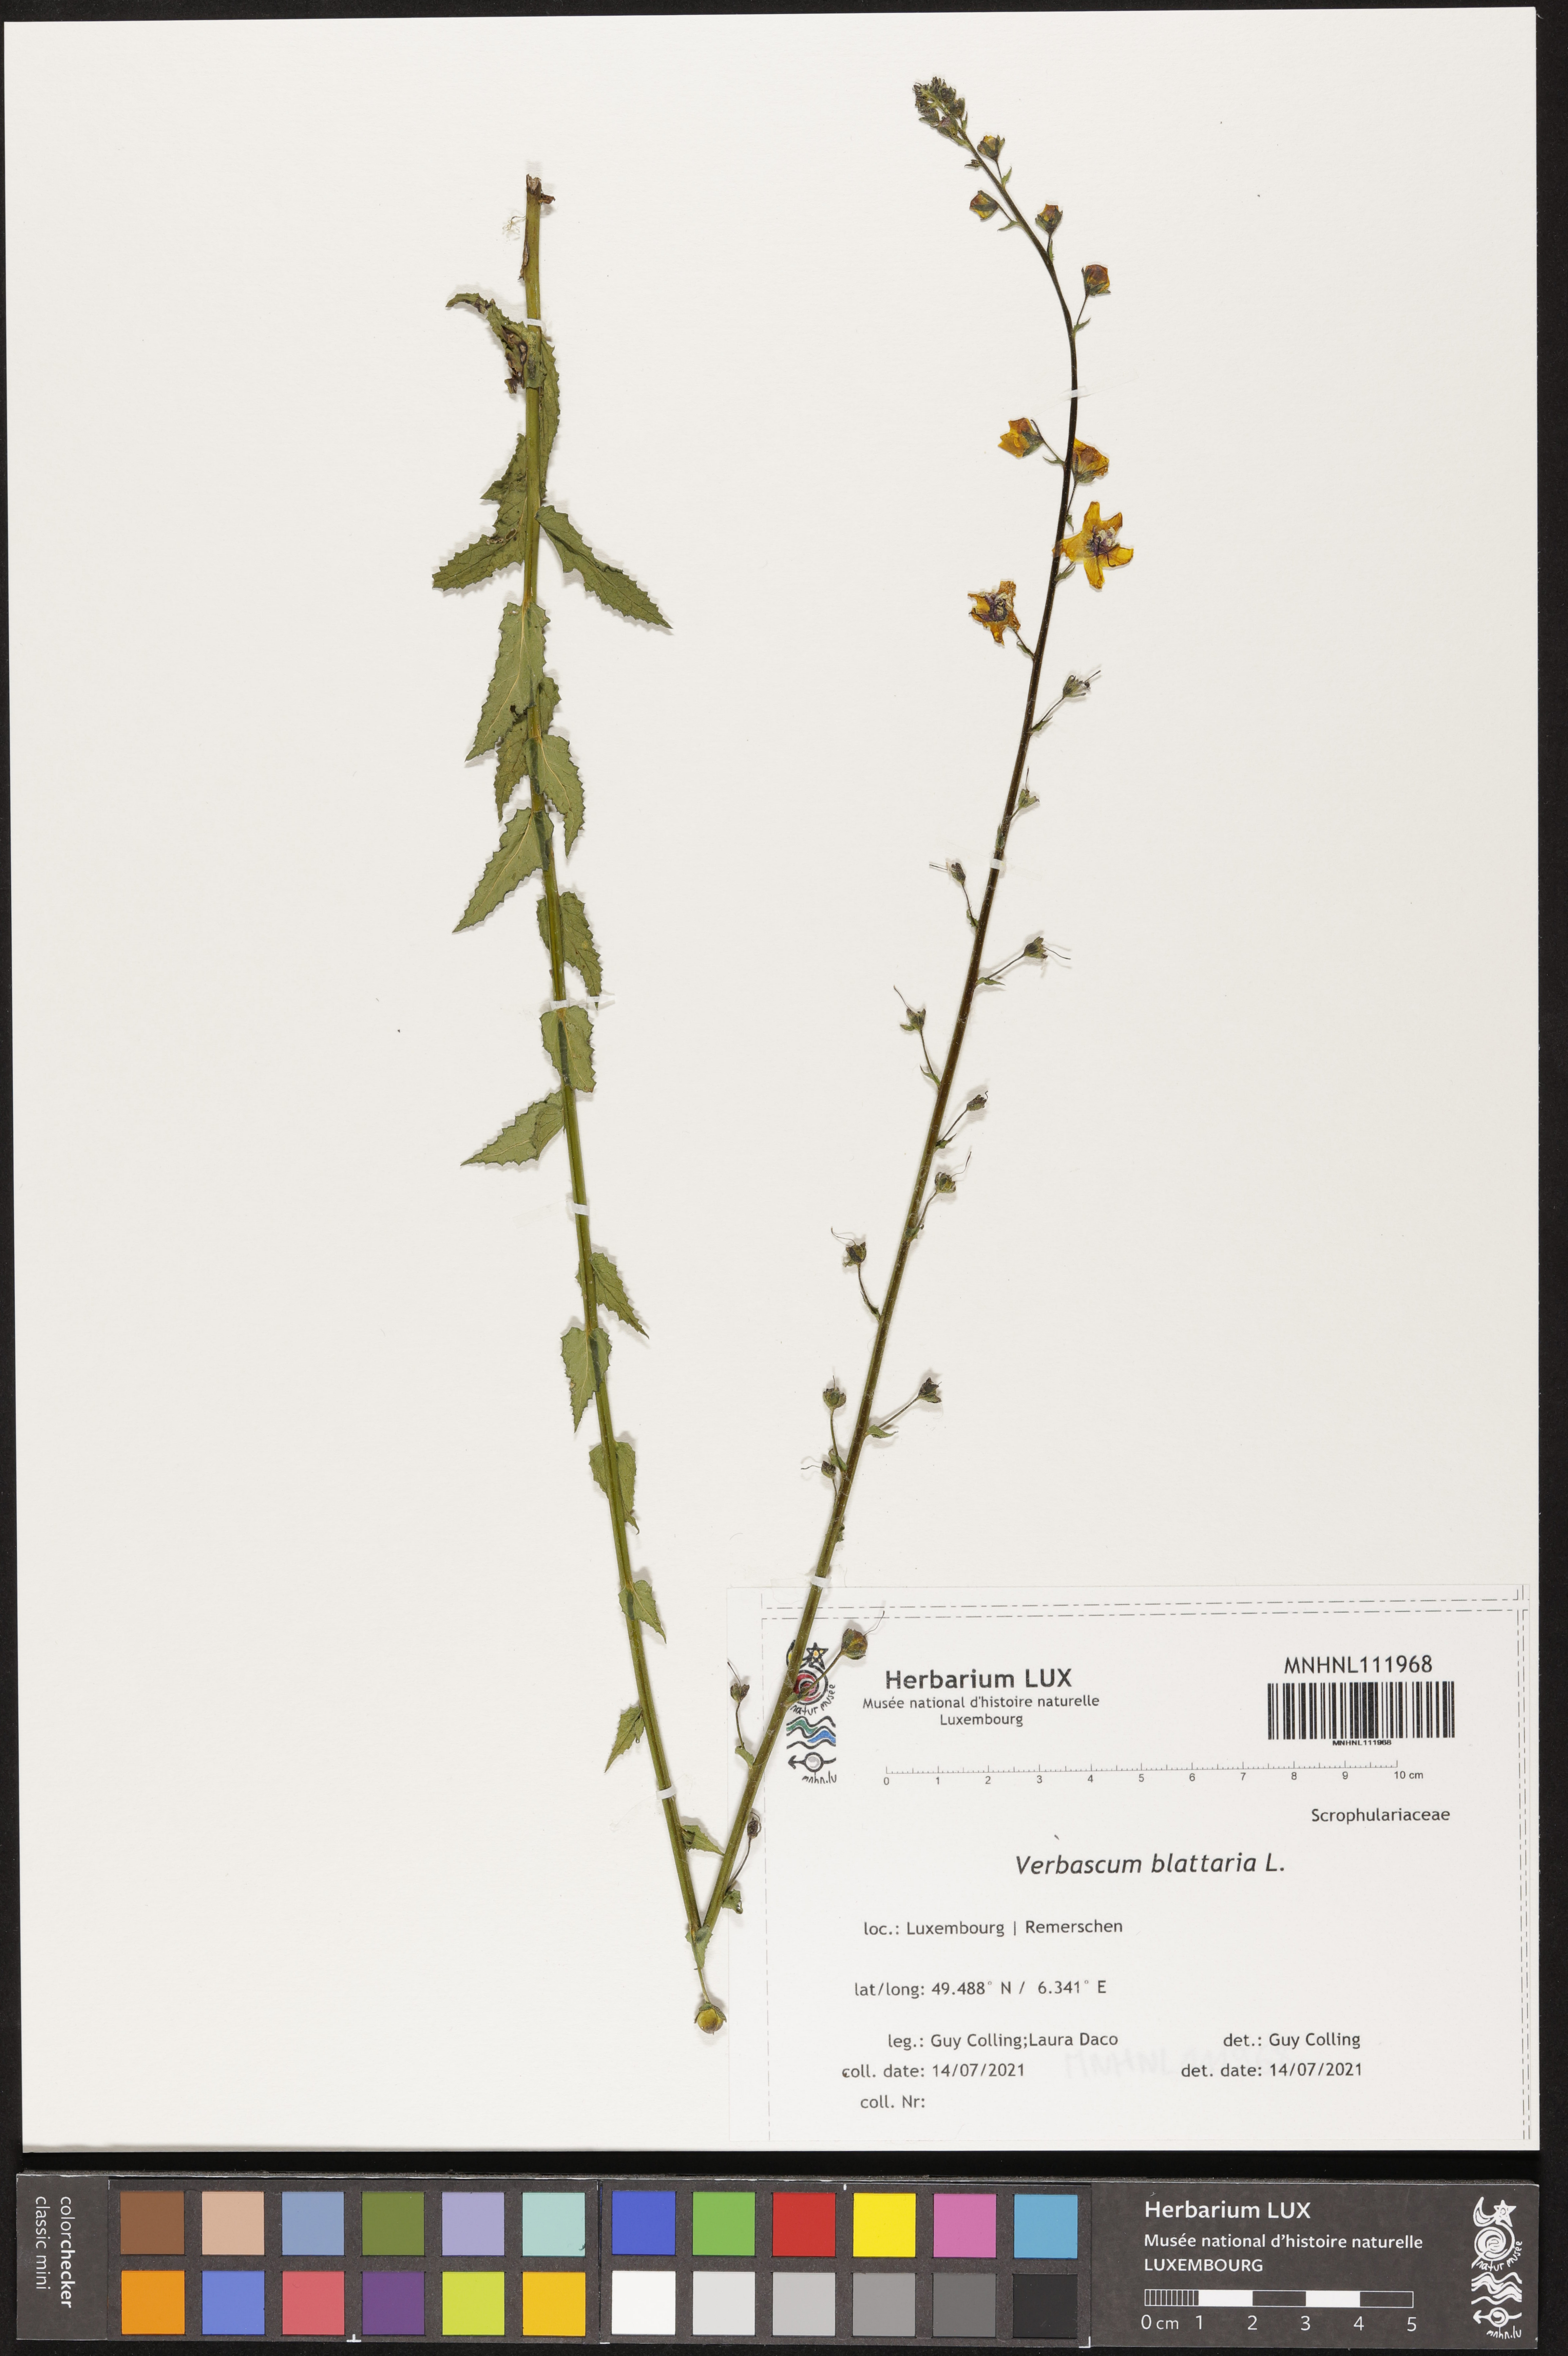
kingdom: Plantae
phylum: Tracheophyta
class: Magnoliopsida
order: Lamiales
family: Scrophulariaceae
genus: Verbascum
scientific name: Verbascum blattaria
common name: Moth mullein
